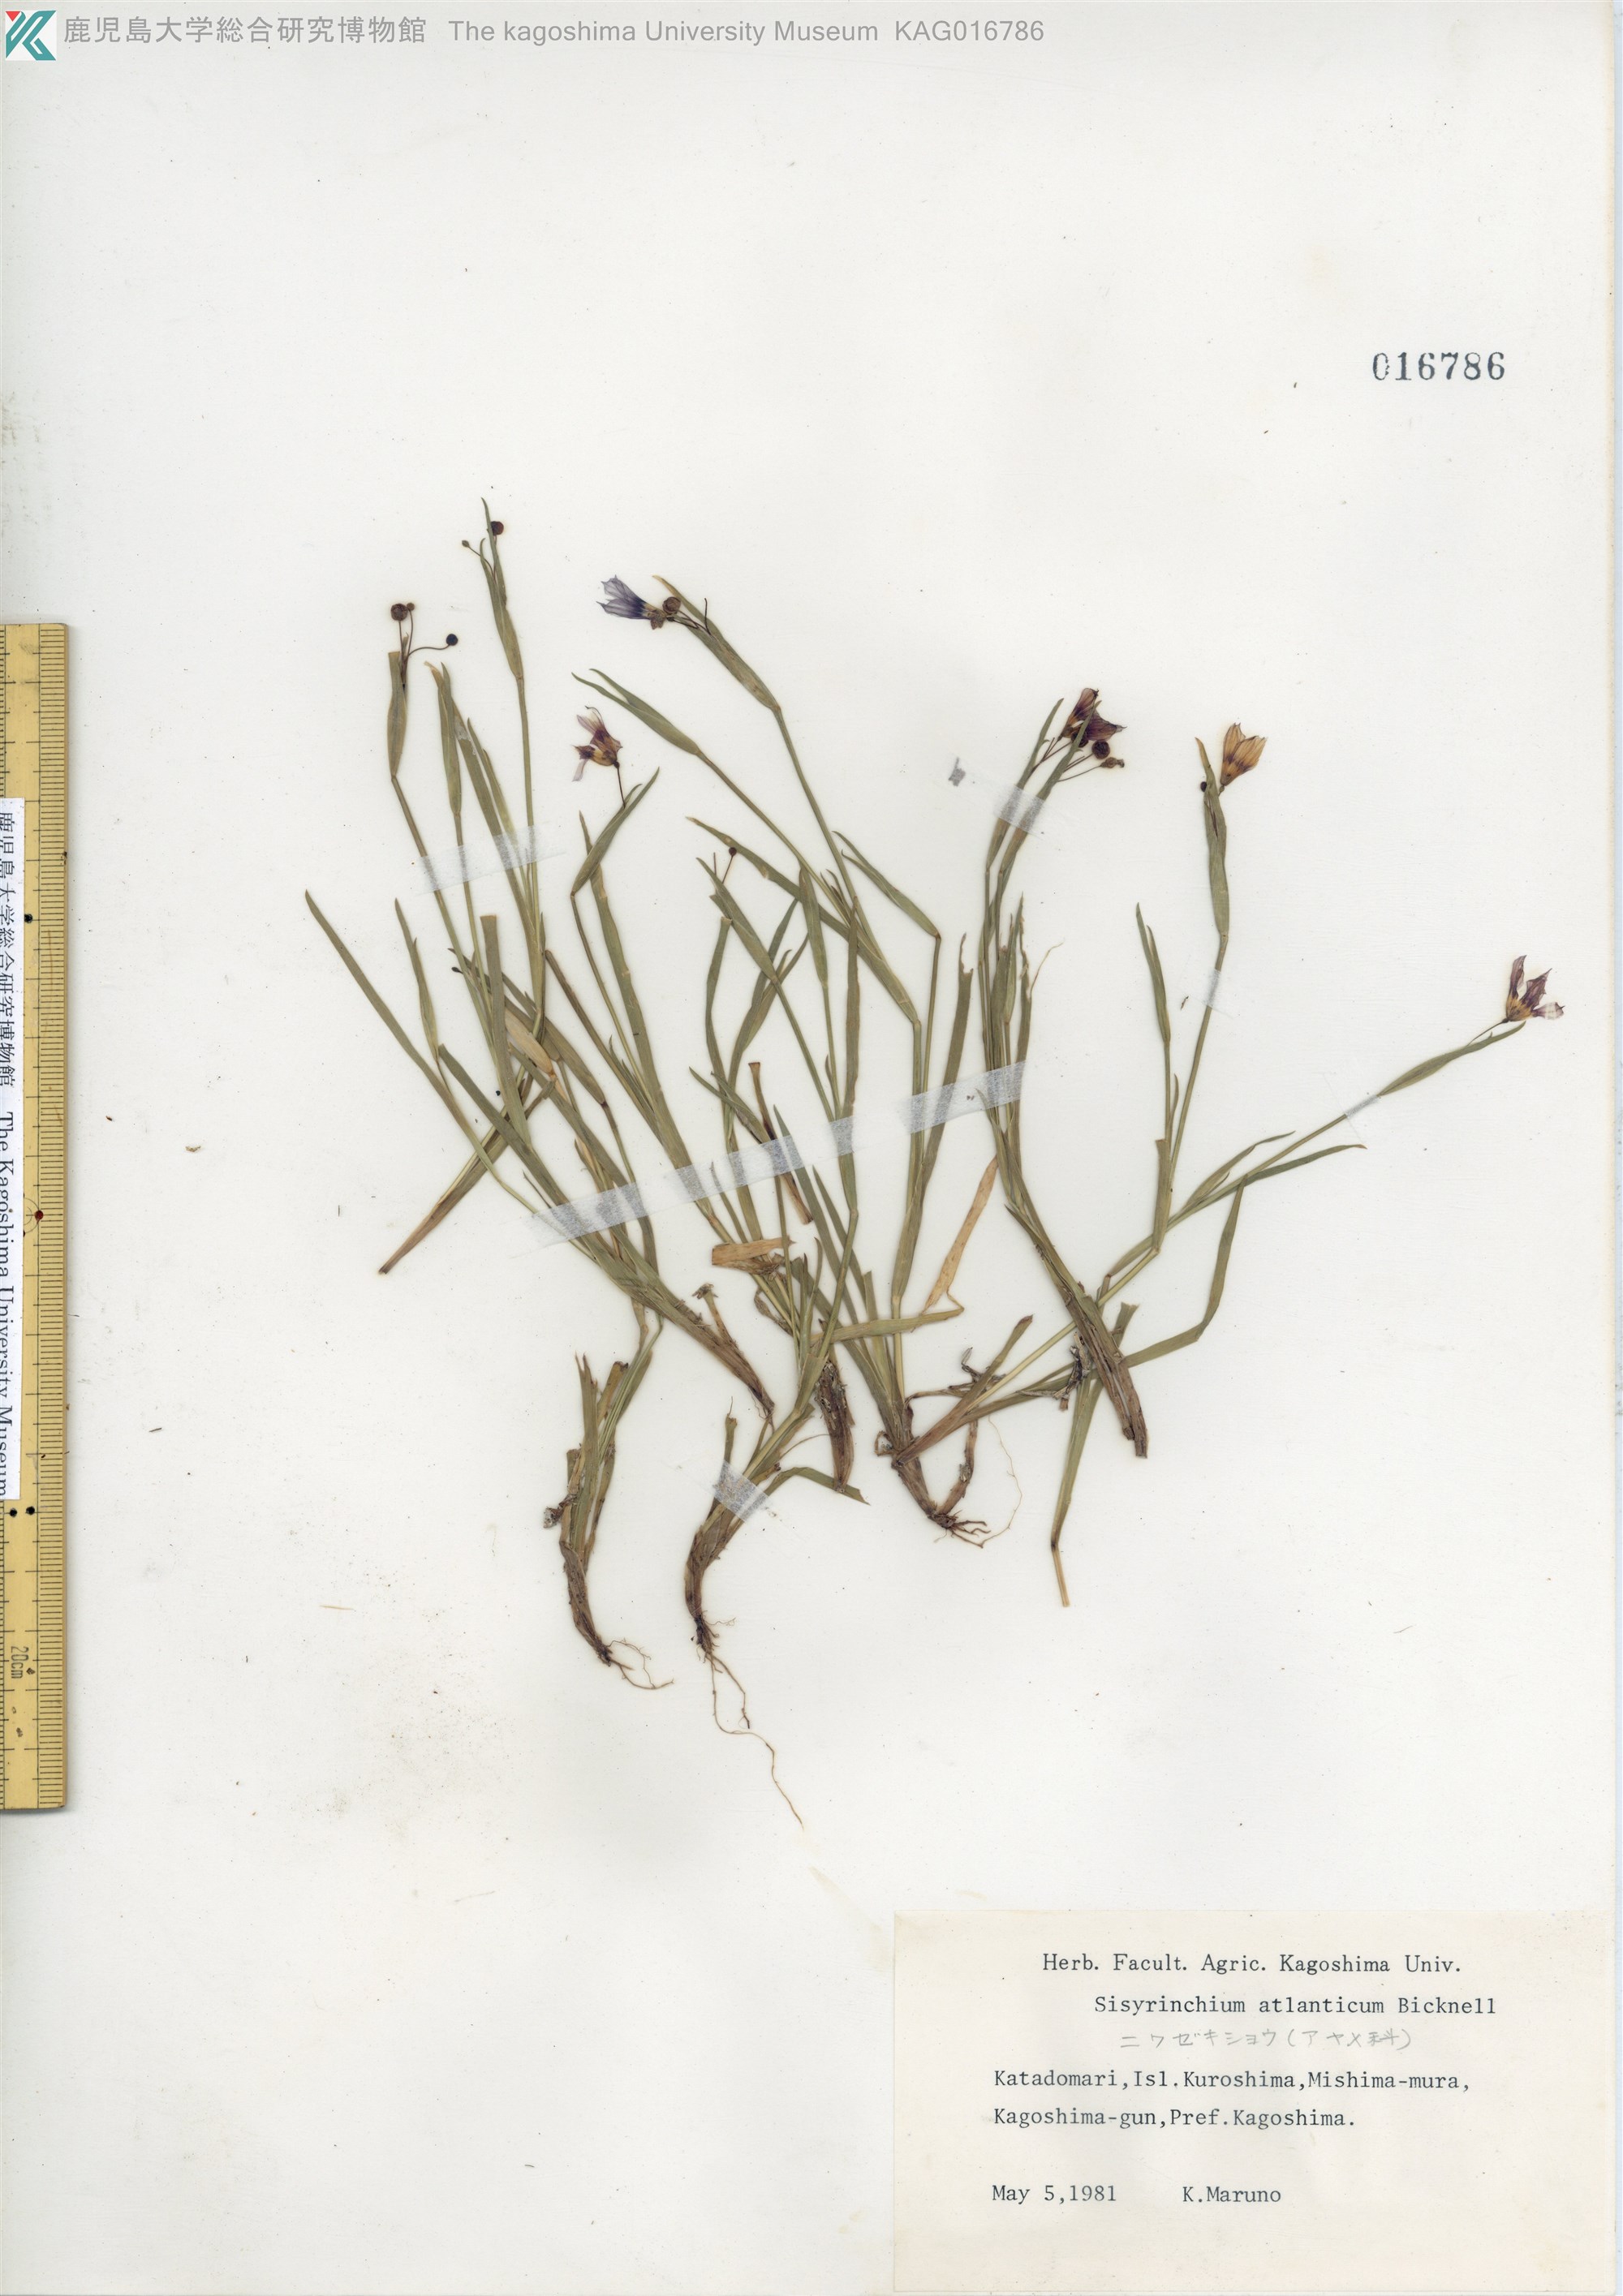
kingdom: Plantae
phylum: Tracheophyta
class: Liliopsida
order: Asparagales
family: Iridaceae
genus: Sisyrinchium
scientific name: Sisyrinchium rosulatum
